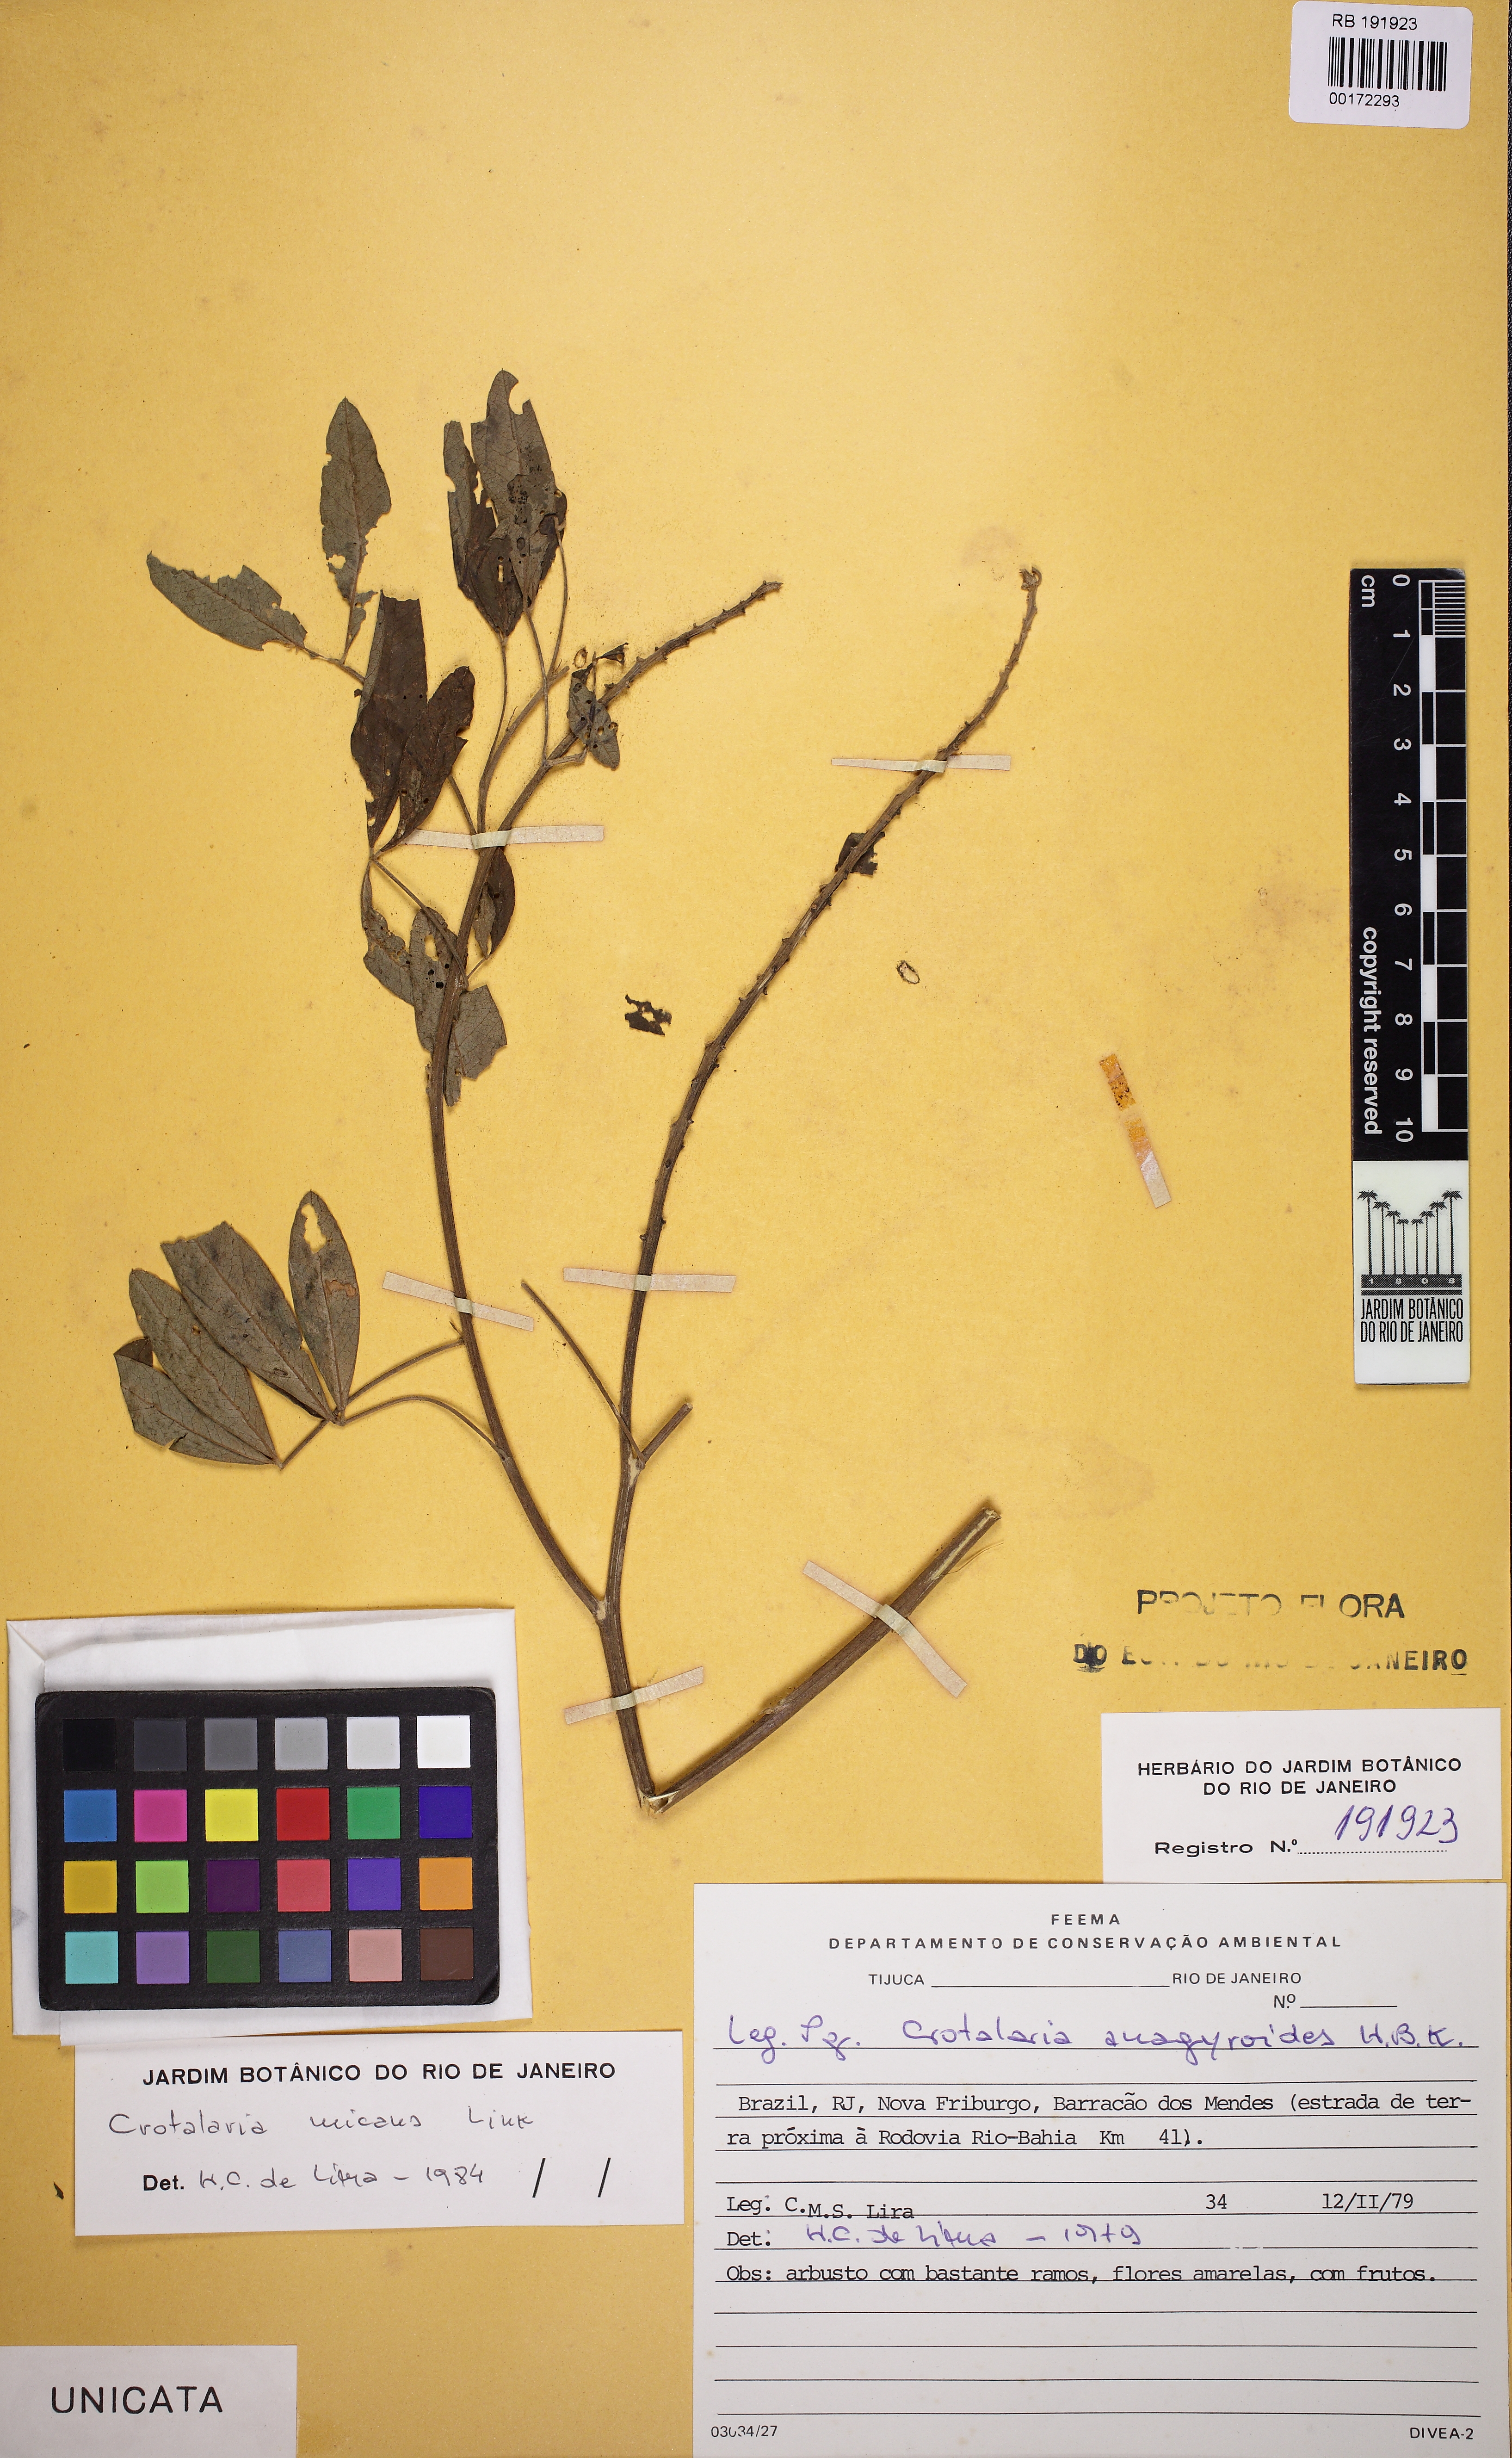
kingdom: Plantae
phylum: Tracheophyta
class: Magnoliopsida
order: Fabales
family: Fabaceae
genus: Crotalaria
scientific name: Crotalaria micans
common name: Caracas rattlebox
